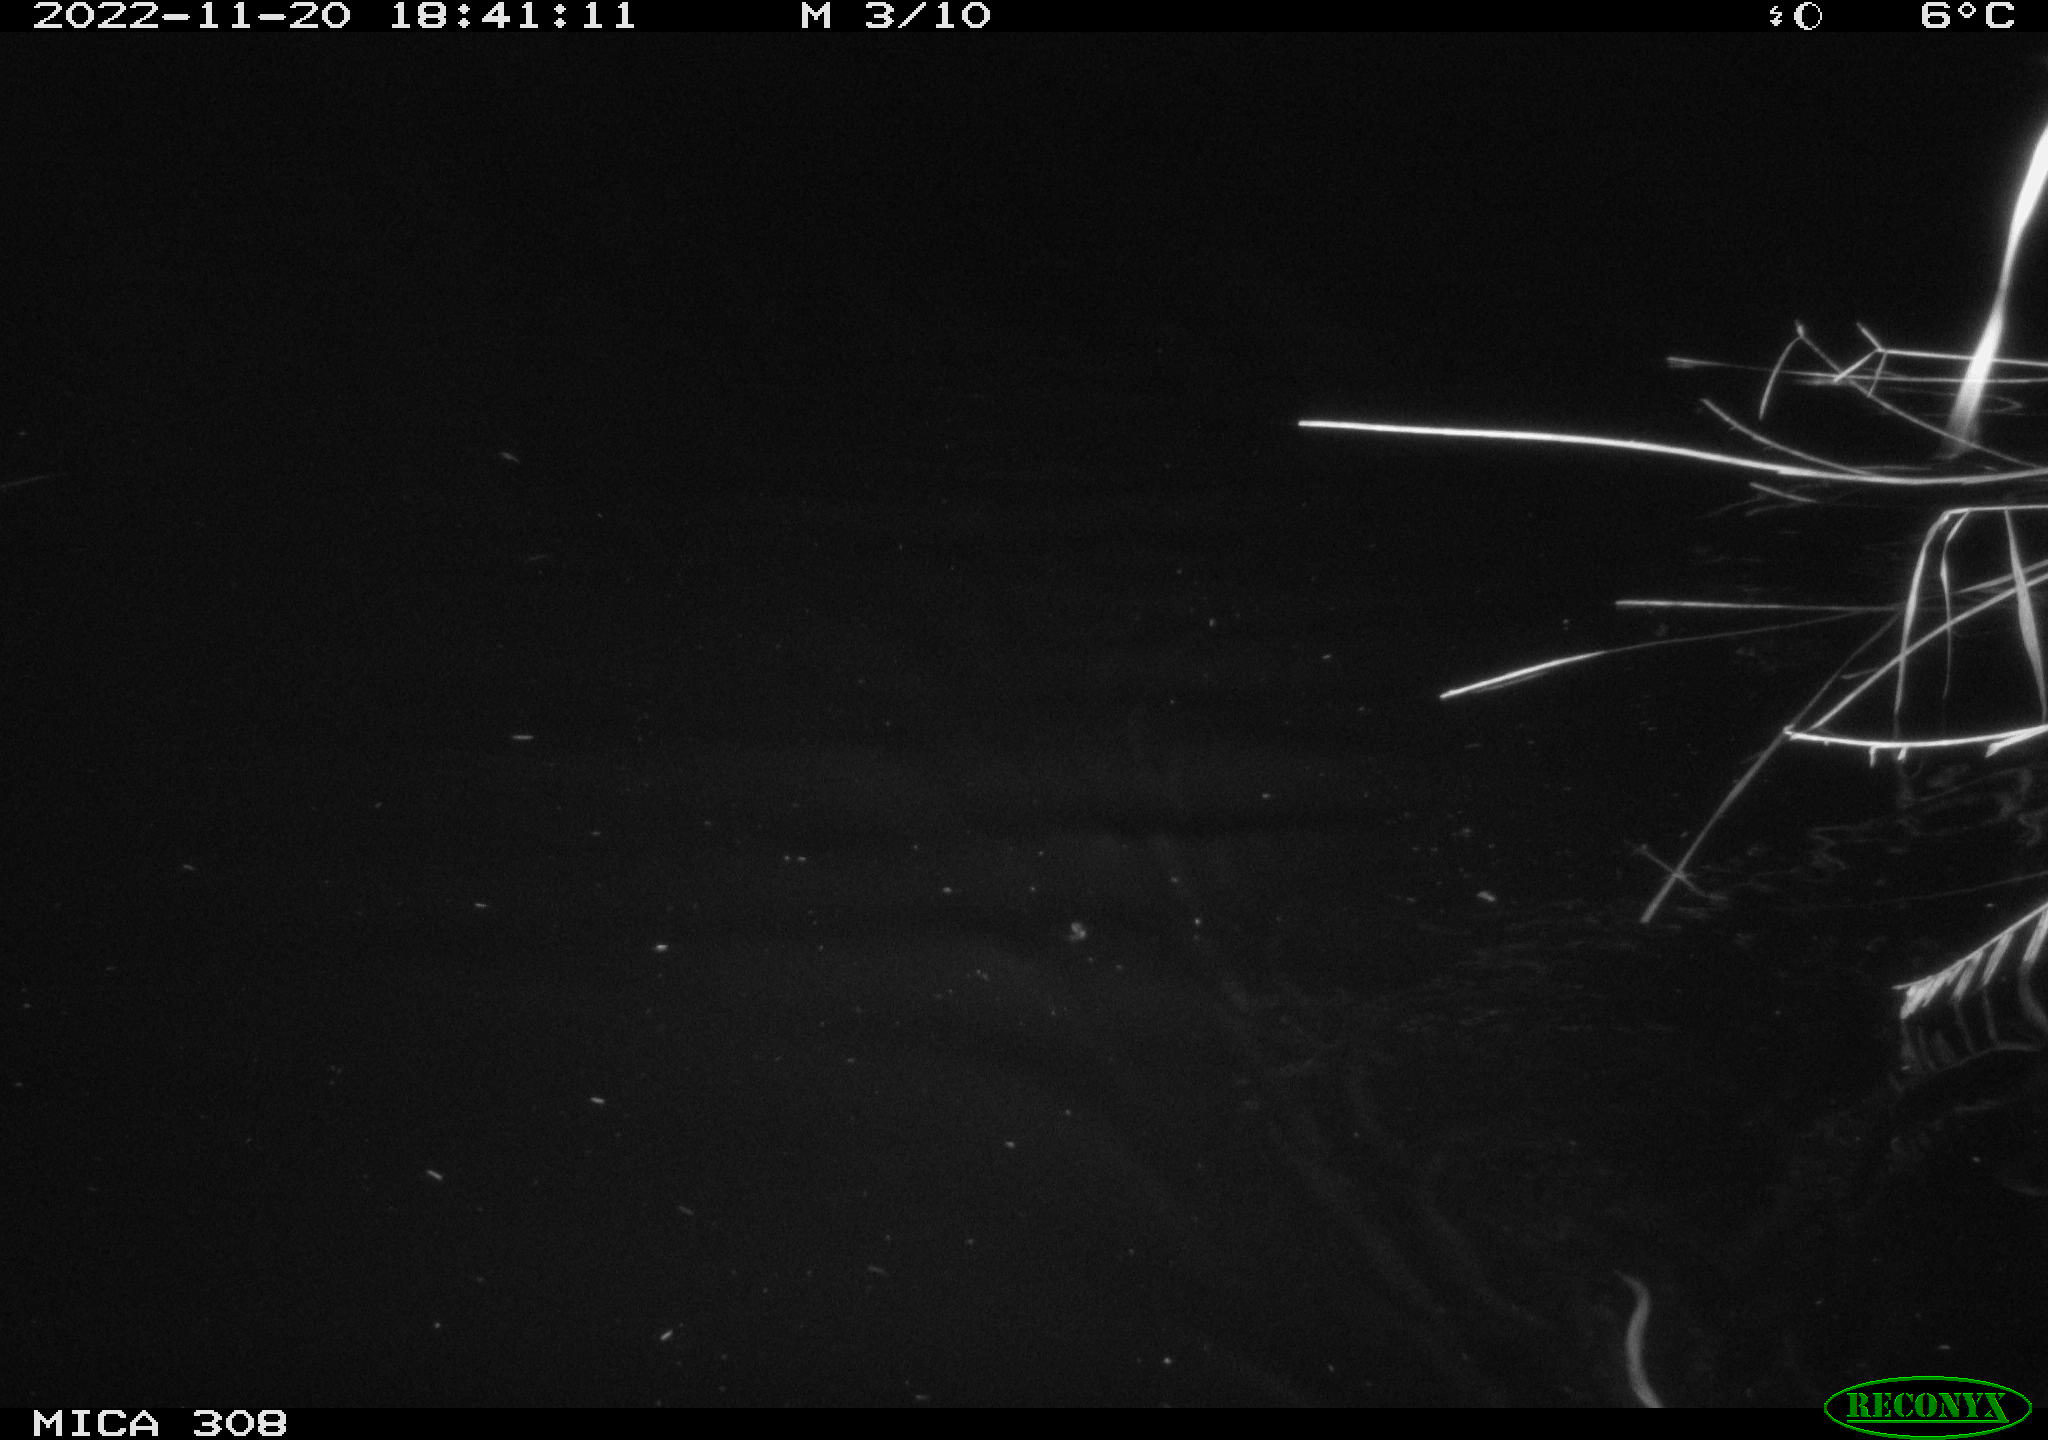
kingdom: Animalia
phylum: Chordata
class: Mammalia
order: Rodentia
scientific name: Rodentia
